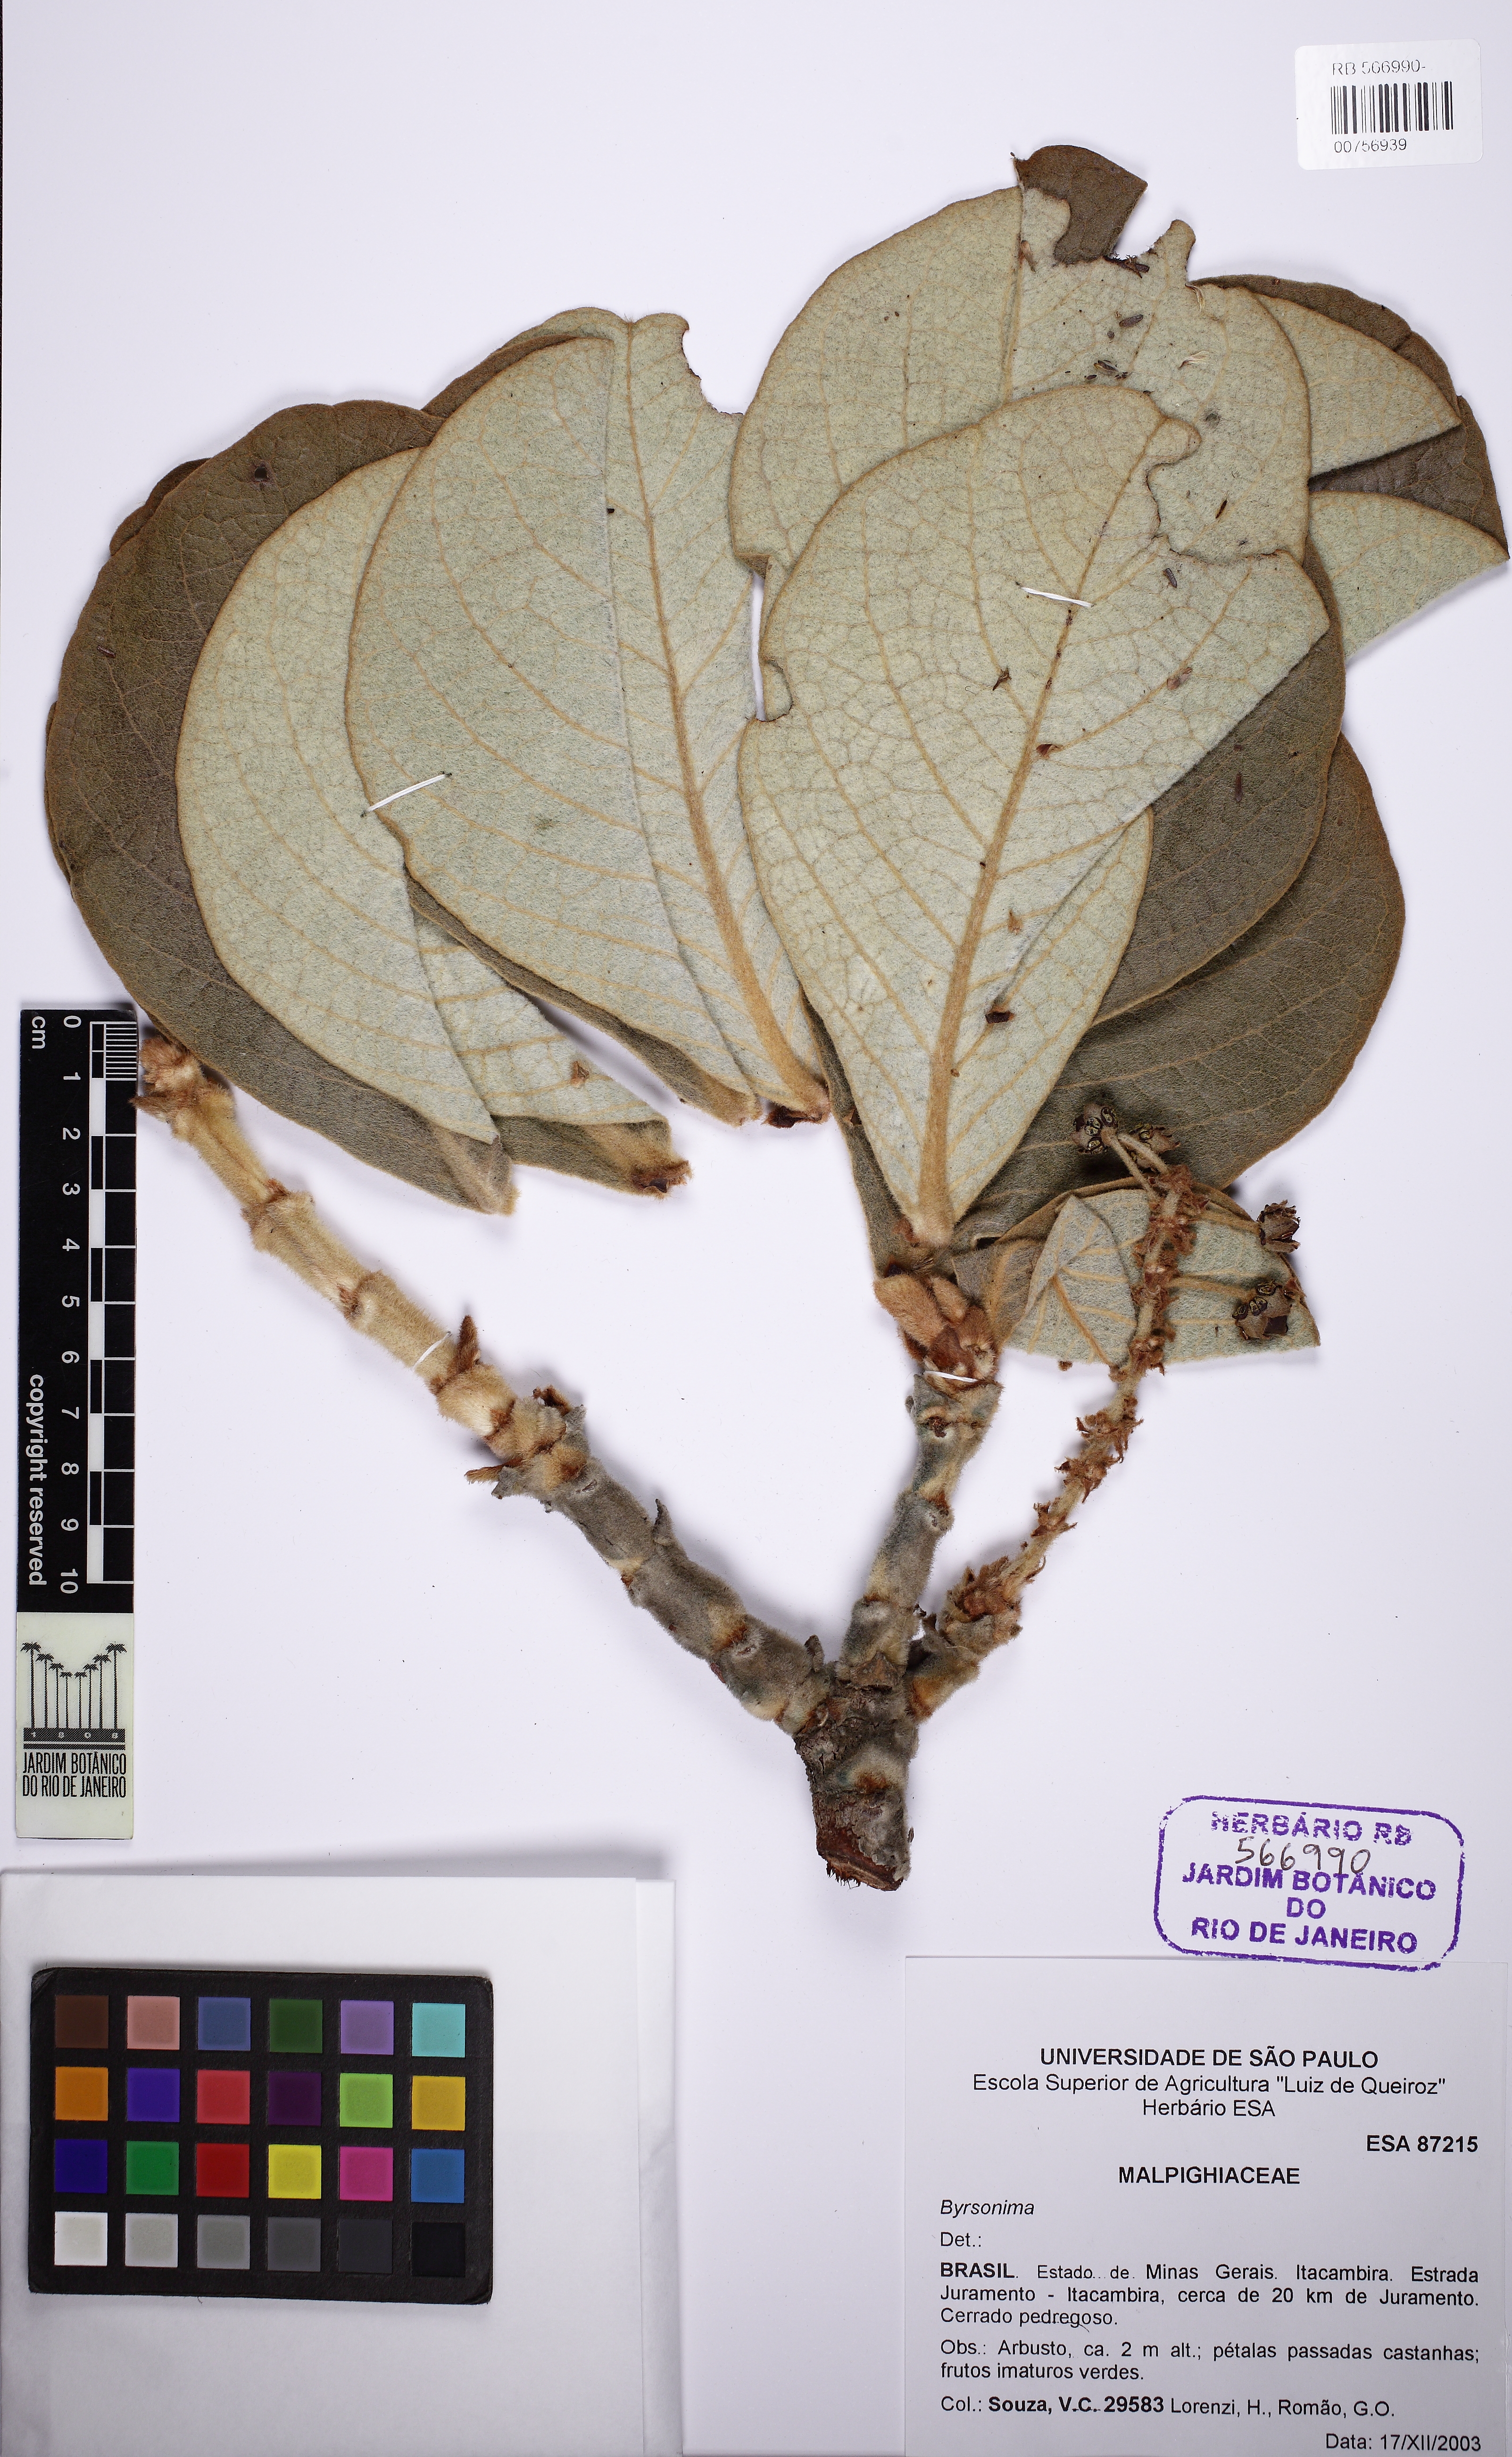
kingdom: Plantae
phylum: Tracheophyta
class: Magnoliopsida
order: Malpighiales
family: Malpighiaceae
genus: Byrsonima
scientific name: Byrsonima verbascifolia
